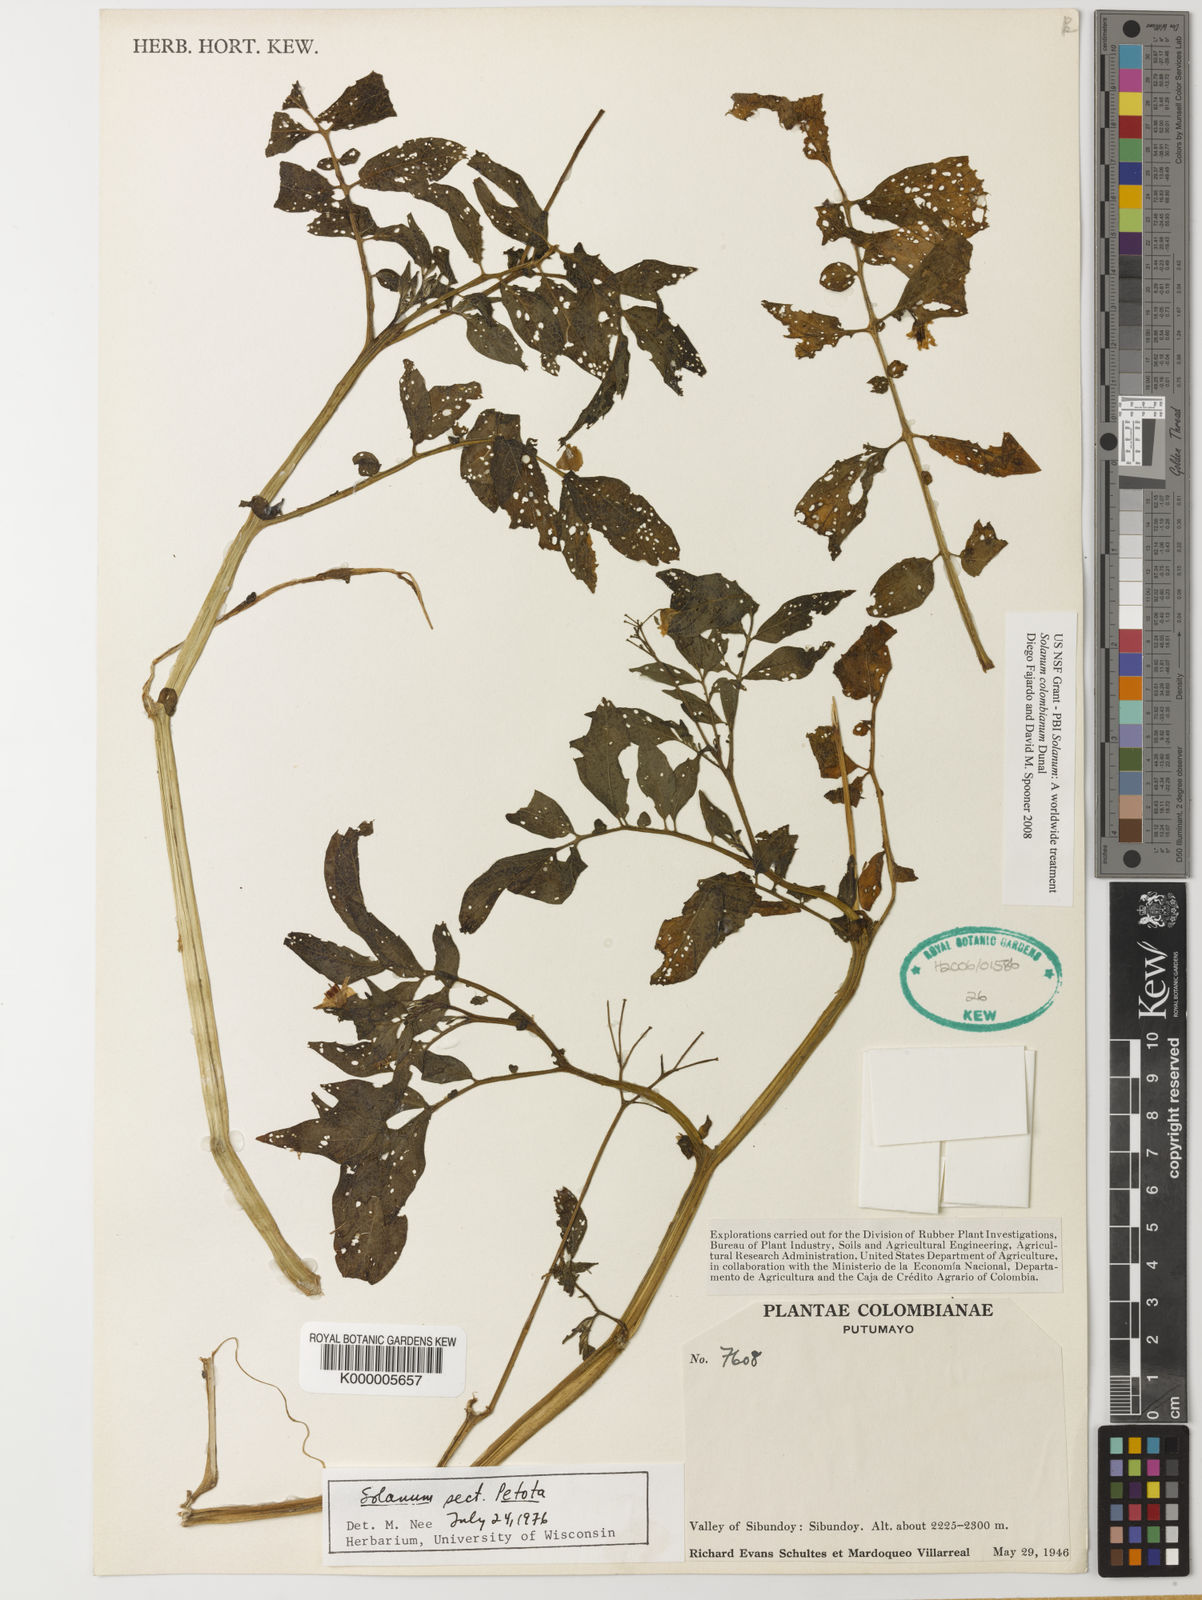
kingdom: Plantae
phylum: Tracheophyta
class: Magnoliopsida
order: Solanales
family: Solanaceae
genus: Solanum
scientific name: Solanum colombianum
